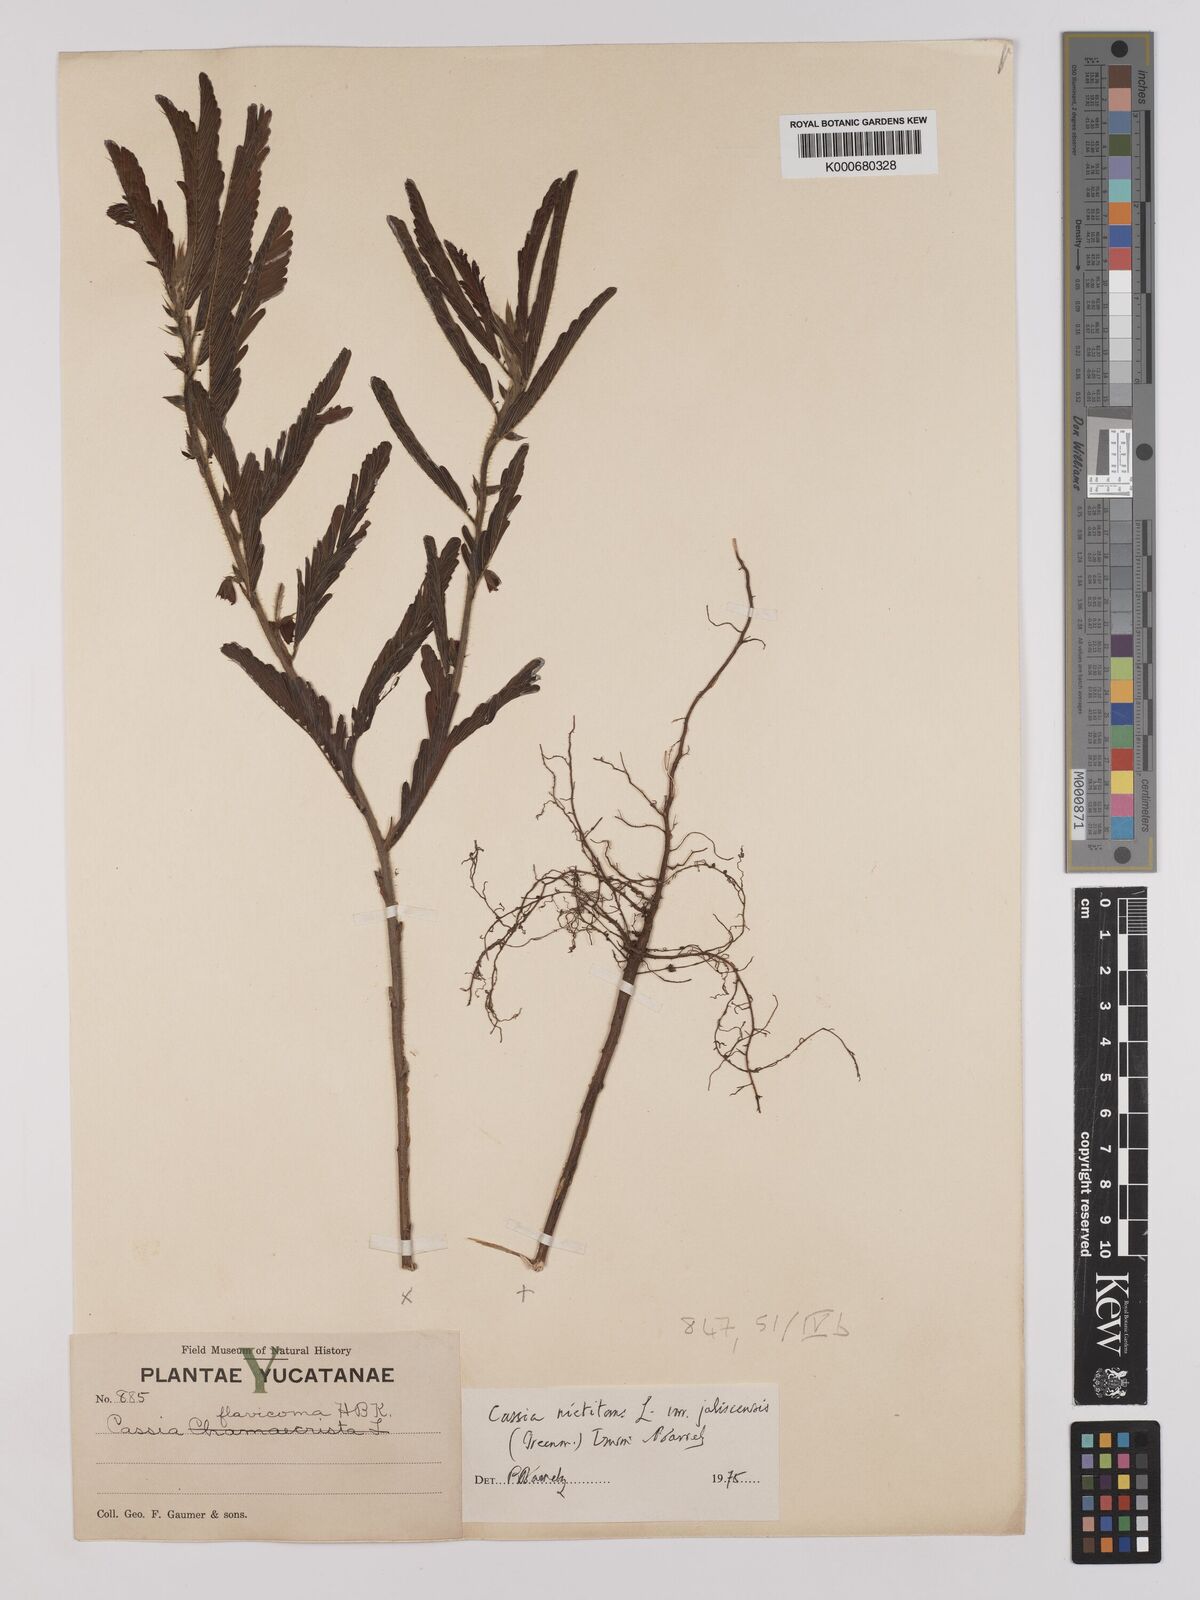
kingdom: Plantae
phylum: Tracheophyta
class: Magnoliopsida
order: Fabales
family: Fabaceae
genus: Chamaecrista
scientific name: Chamaecrista nictitans
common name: Sensitive cassia
